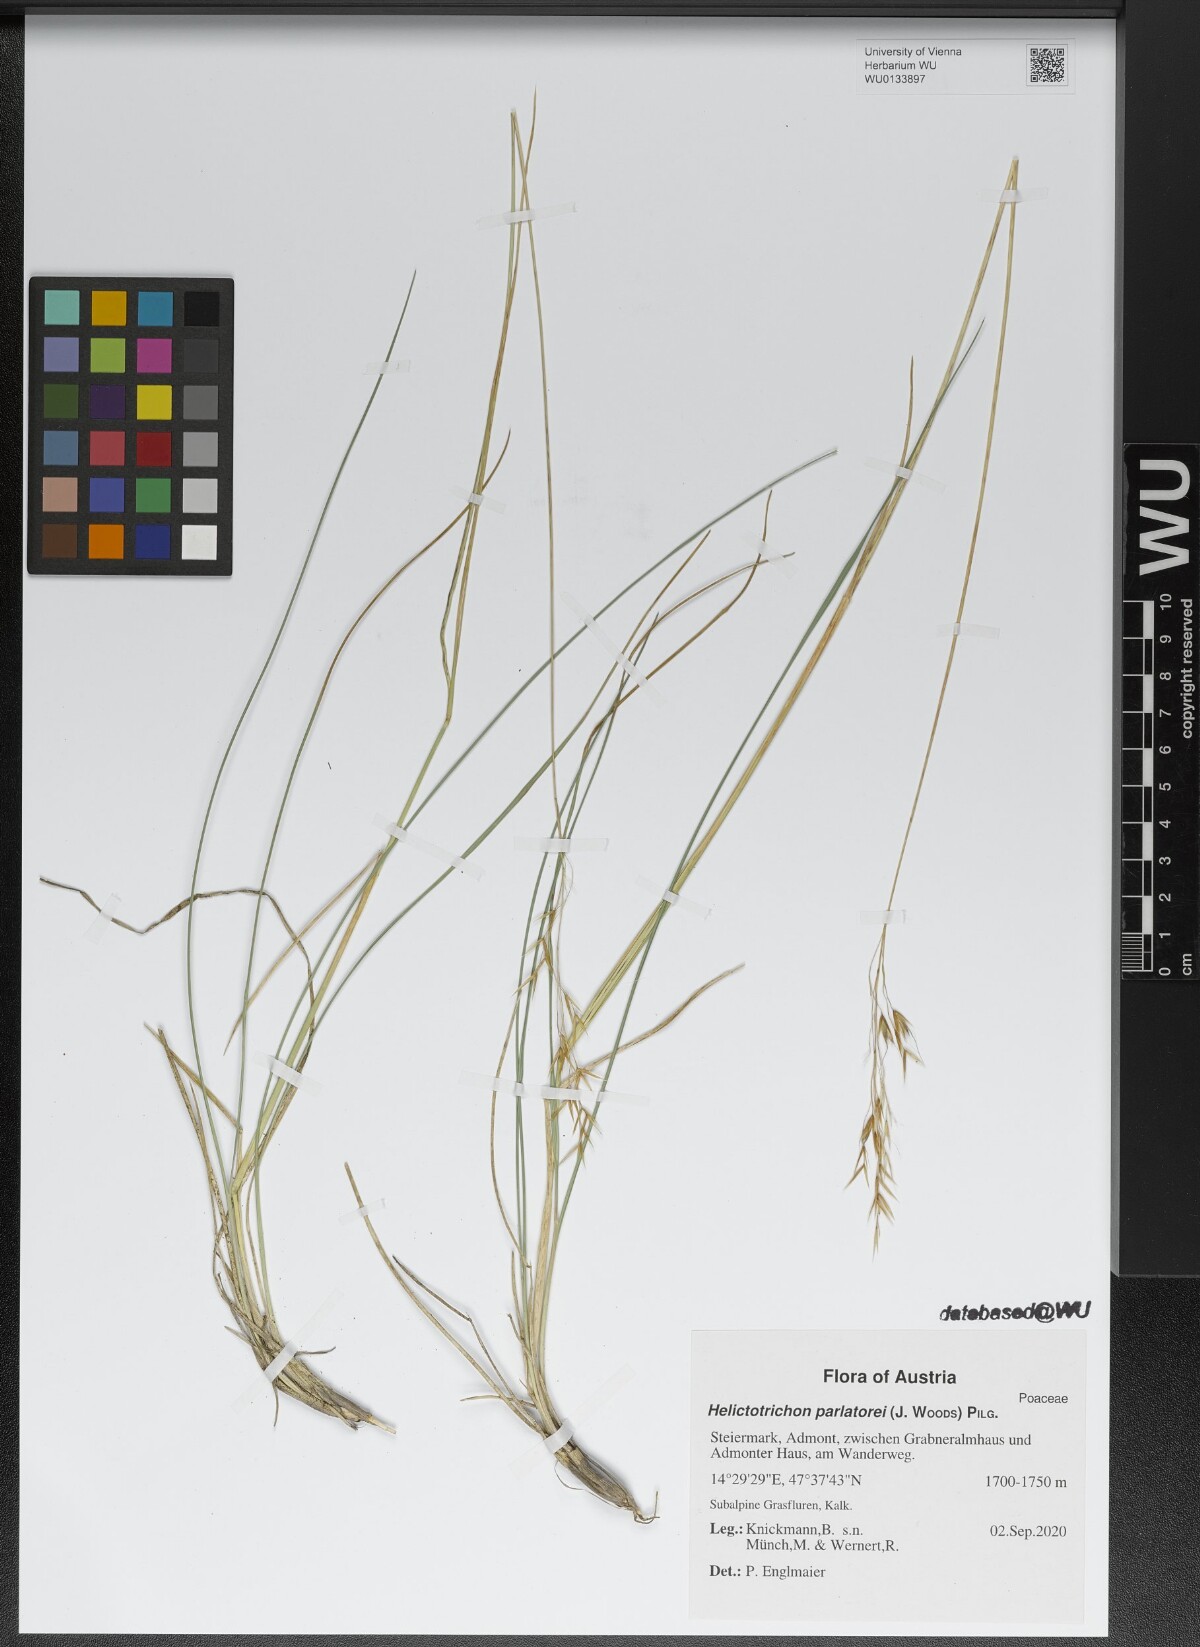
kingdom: Plantae
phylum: Tracheophyta
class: Liliopsida
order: Poales
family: Poaceae
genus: Helictotrichon
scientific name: Helictotrichon parlatorei
